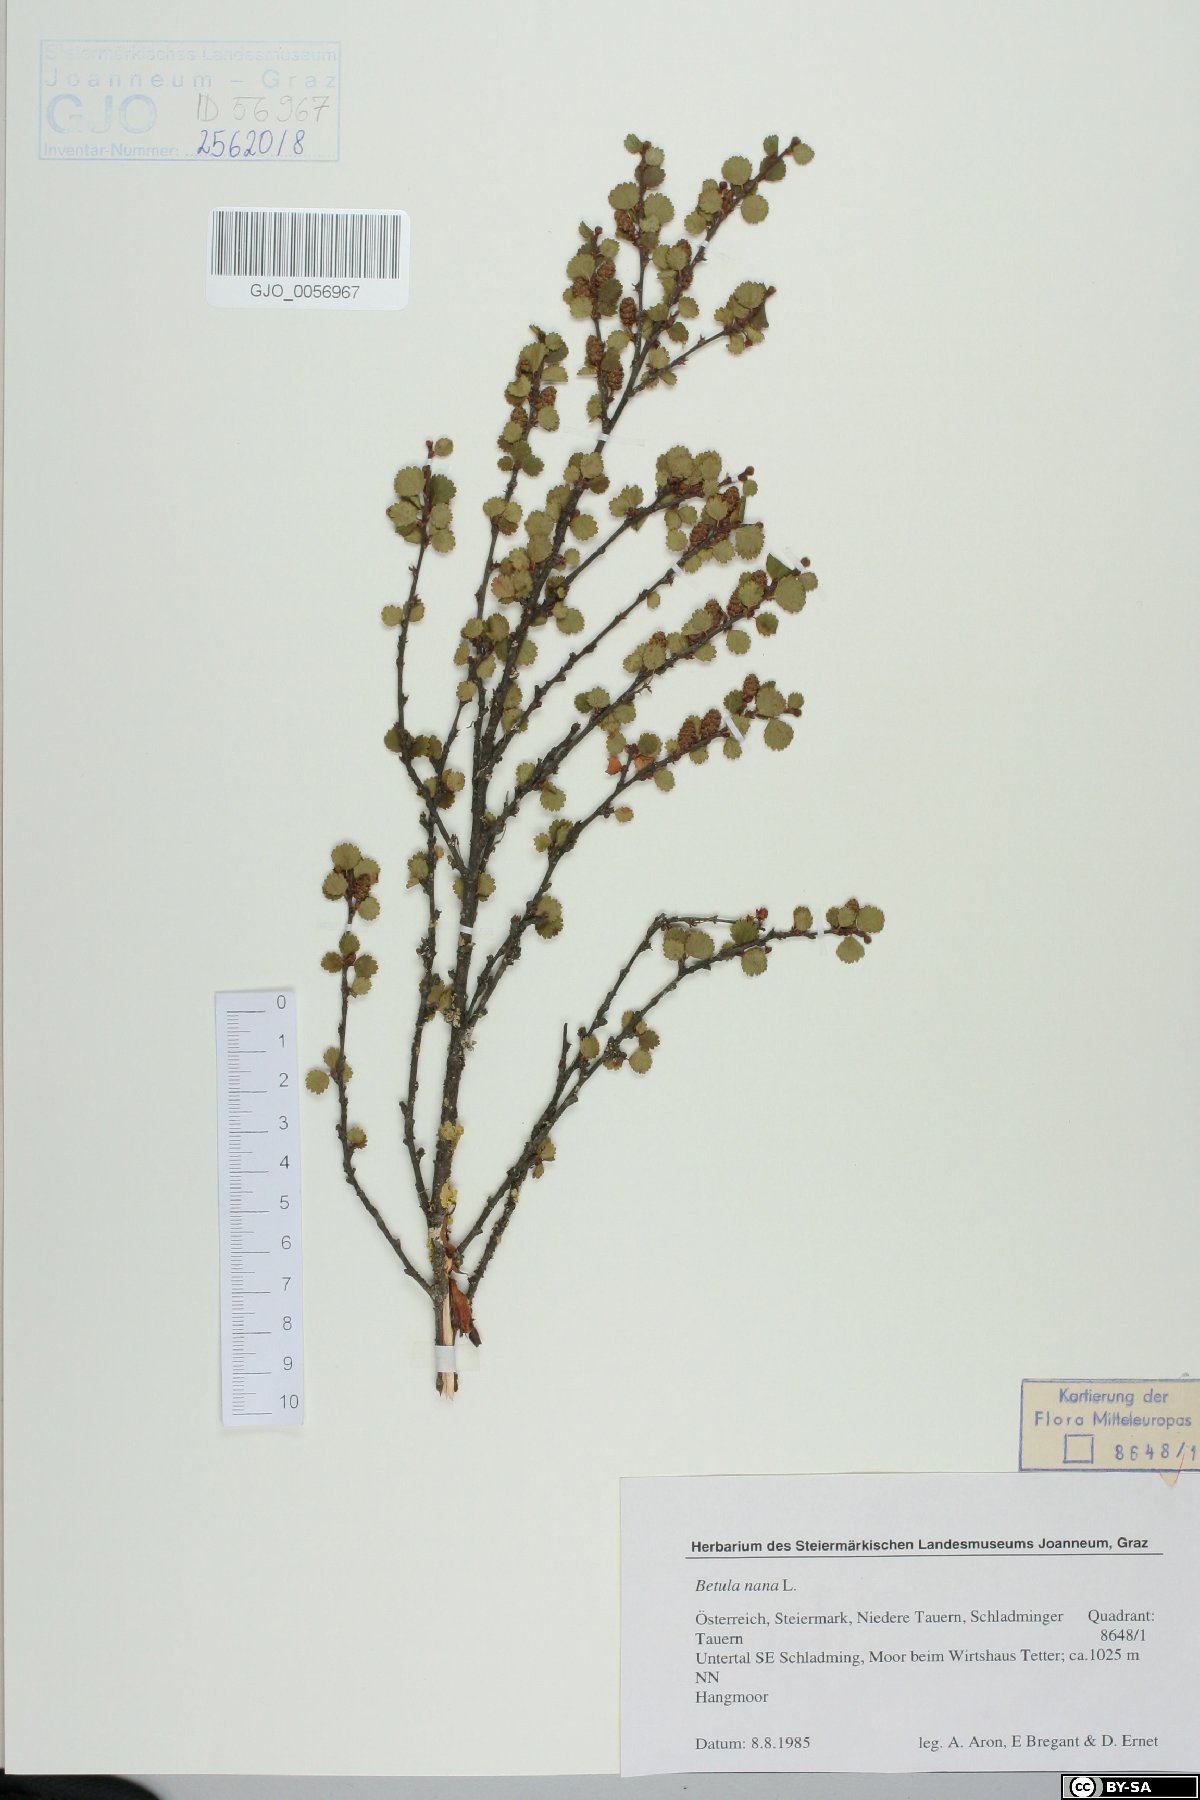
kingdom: Plantae
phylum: Tracheophyta
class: Magnoliopsida
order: Fagales
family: Betulaceae
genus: Betula
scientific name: Betula nana
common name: Arctic dwarf birch
